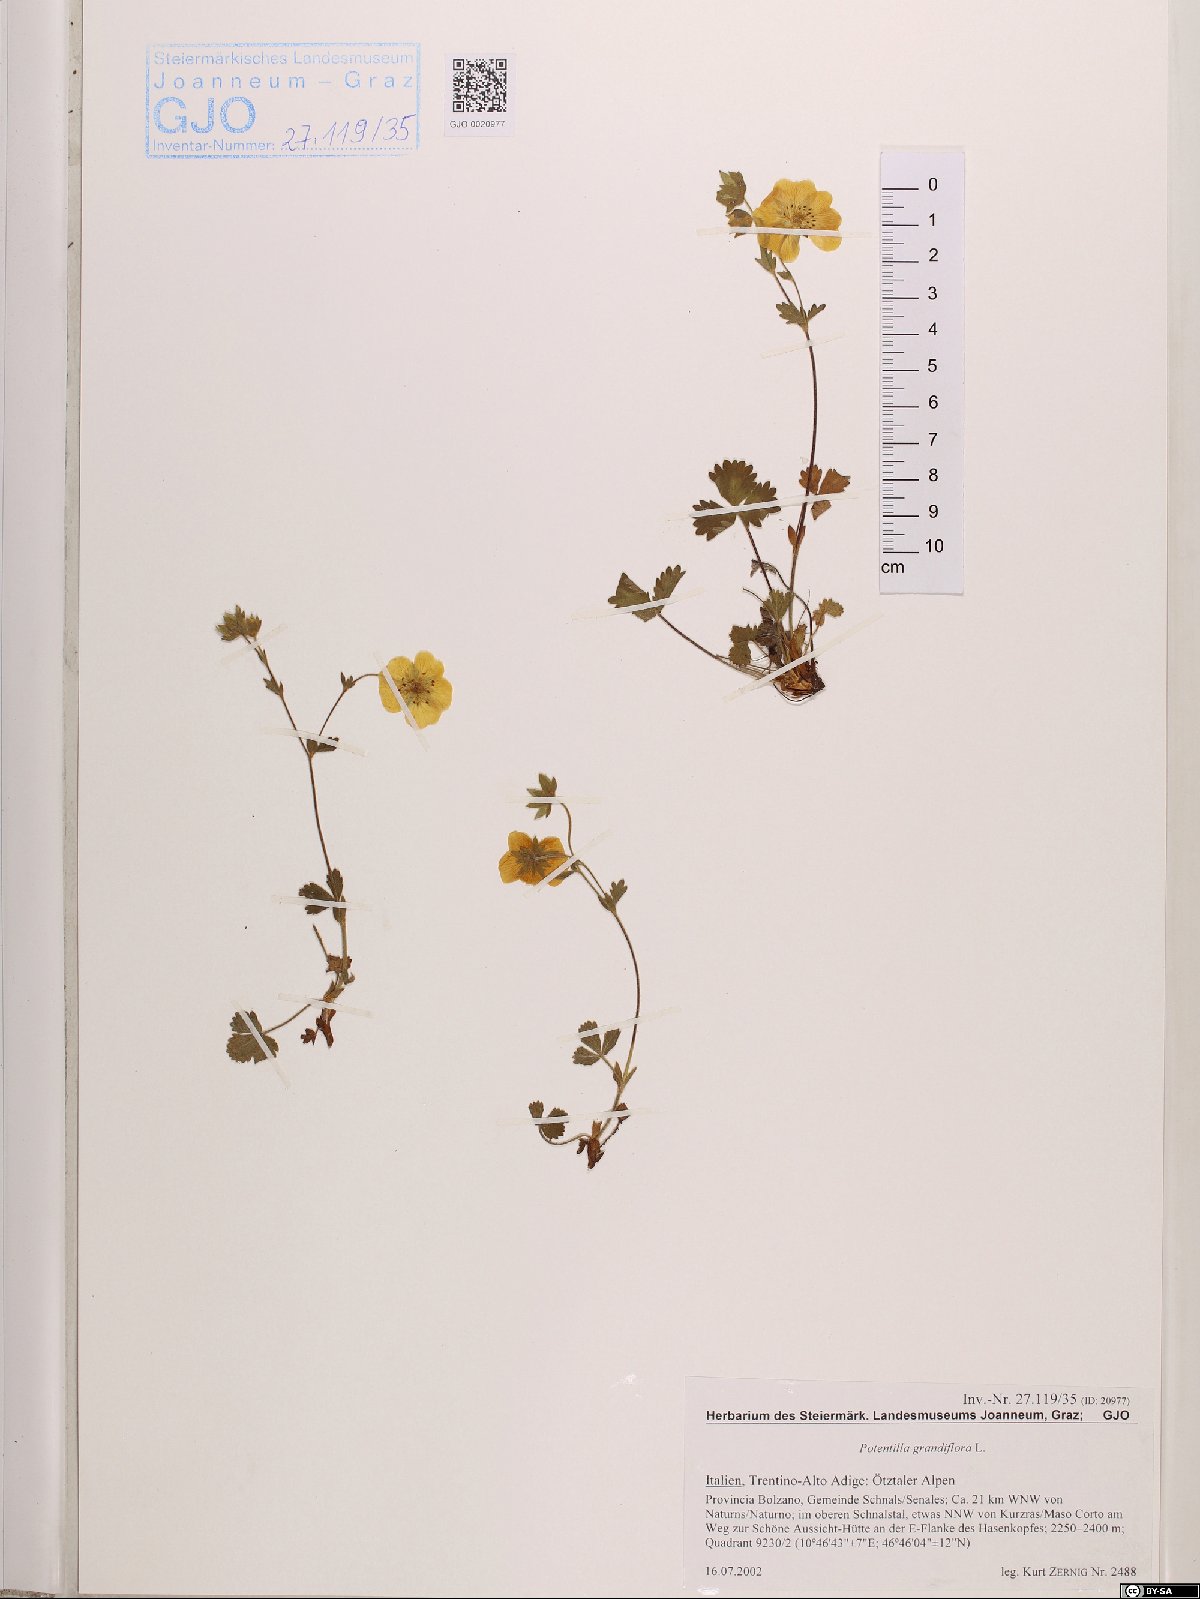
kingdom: Plantae
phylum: Tracheophyta
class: Magnoliopsida
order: Rosales
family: Rosaceae
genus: Potentilla
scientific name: Potentilla grandiflora
